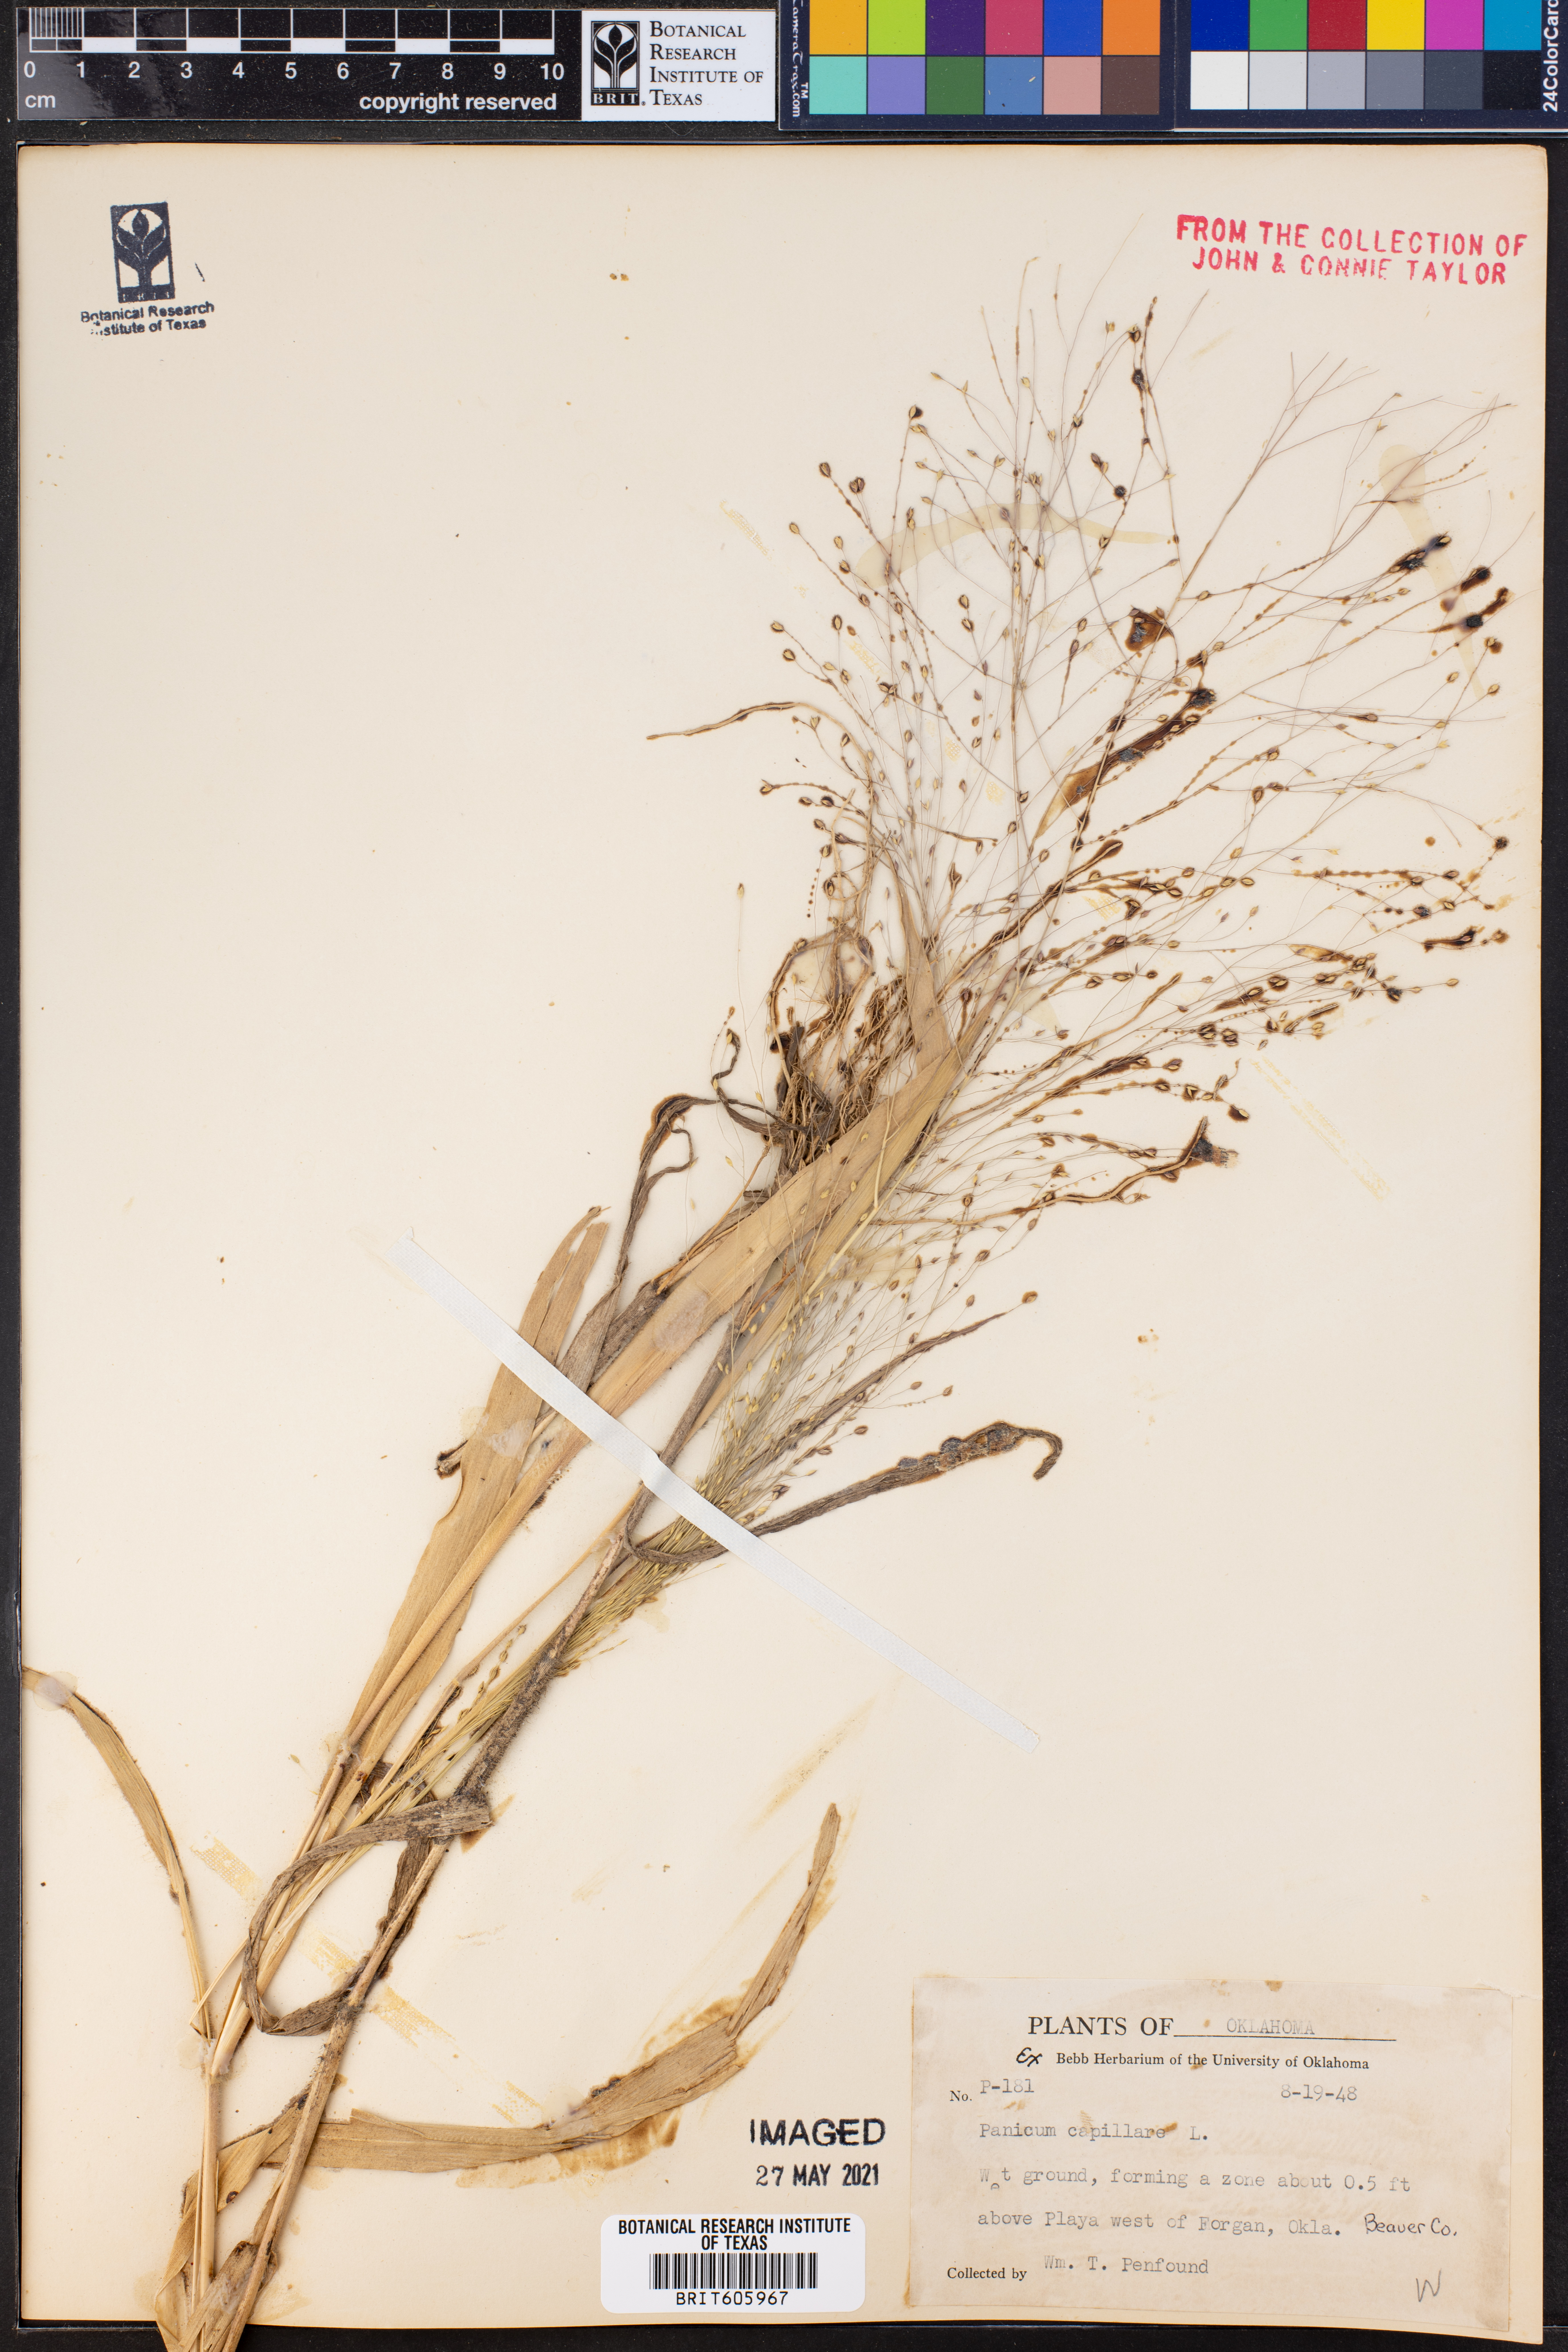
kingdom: Plantae
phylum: Tracheophyta
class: Liliopsida
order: Poales
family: Poaceae
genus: Panicum
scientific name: Panicum capillare
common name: Witch-grass
